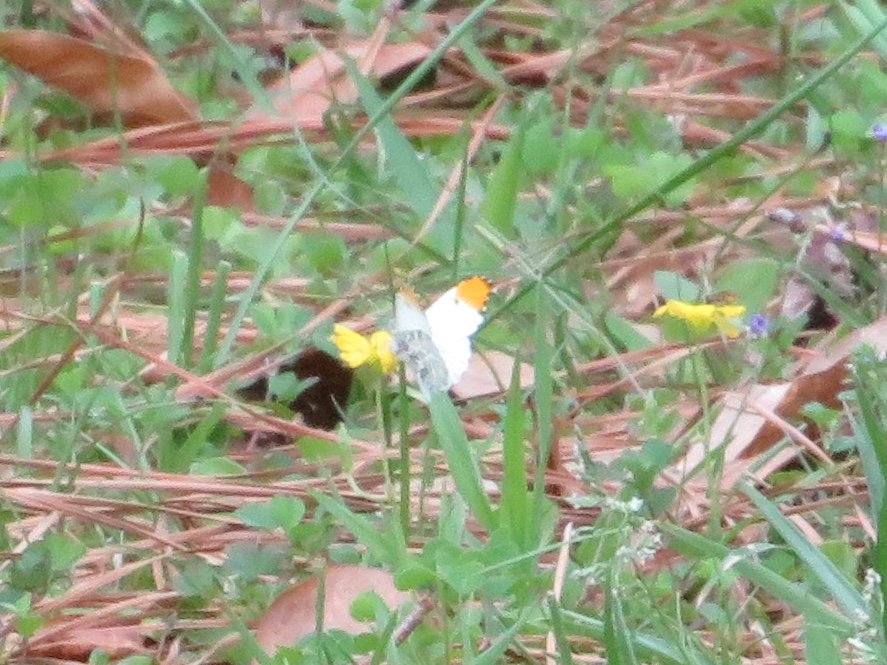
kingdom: Animalia
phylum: Arthropoda
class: Insecta
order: Lepidoptera
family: Pieridae
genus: Anthocharis
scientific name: Anthocharis midea
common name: Falcate Orangetip
